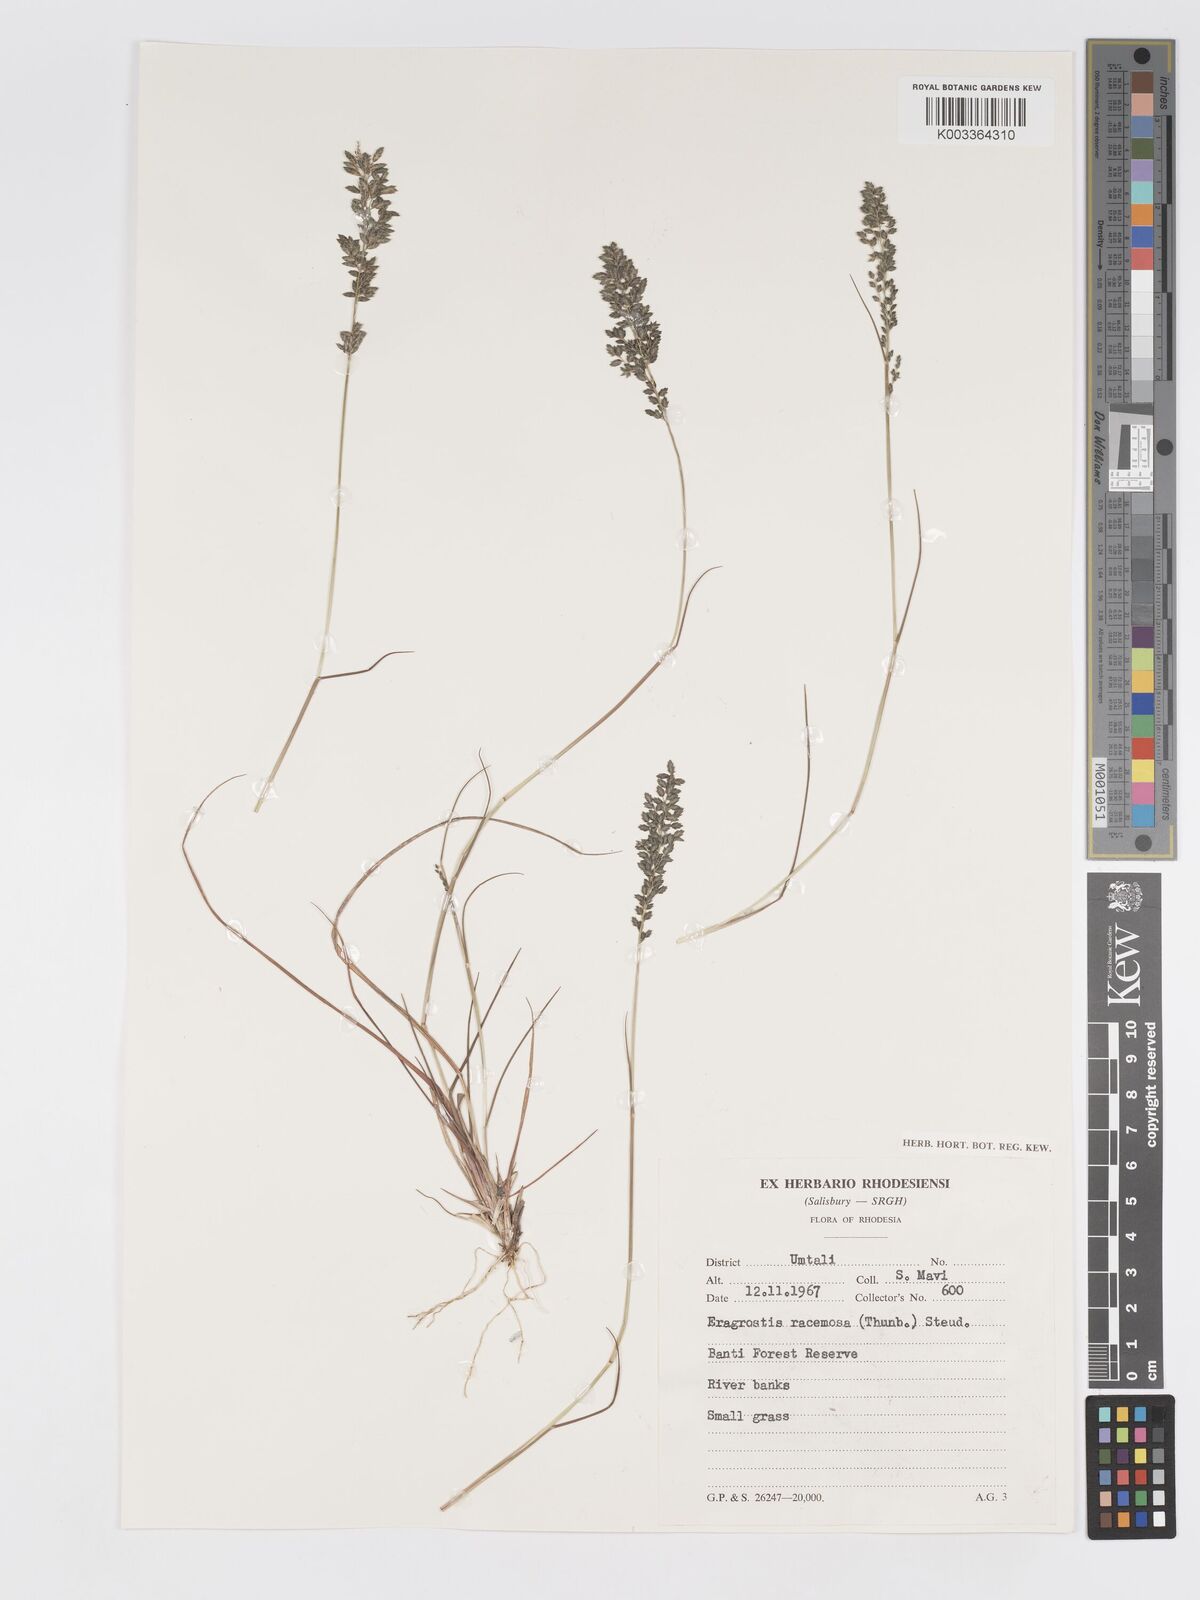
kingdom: Plantae
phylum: Tracheophyta
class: Liliopsida
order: Poales
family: Poaceae
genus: Eragrostis
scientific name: Eragrostis racemosa
